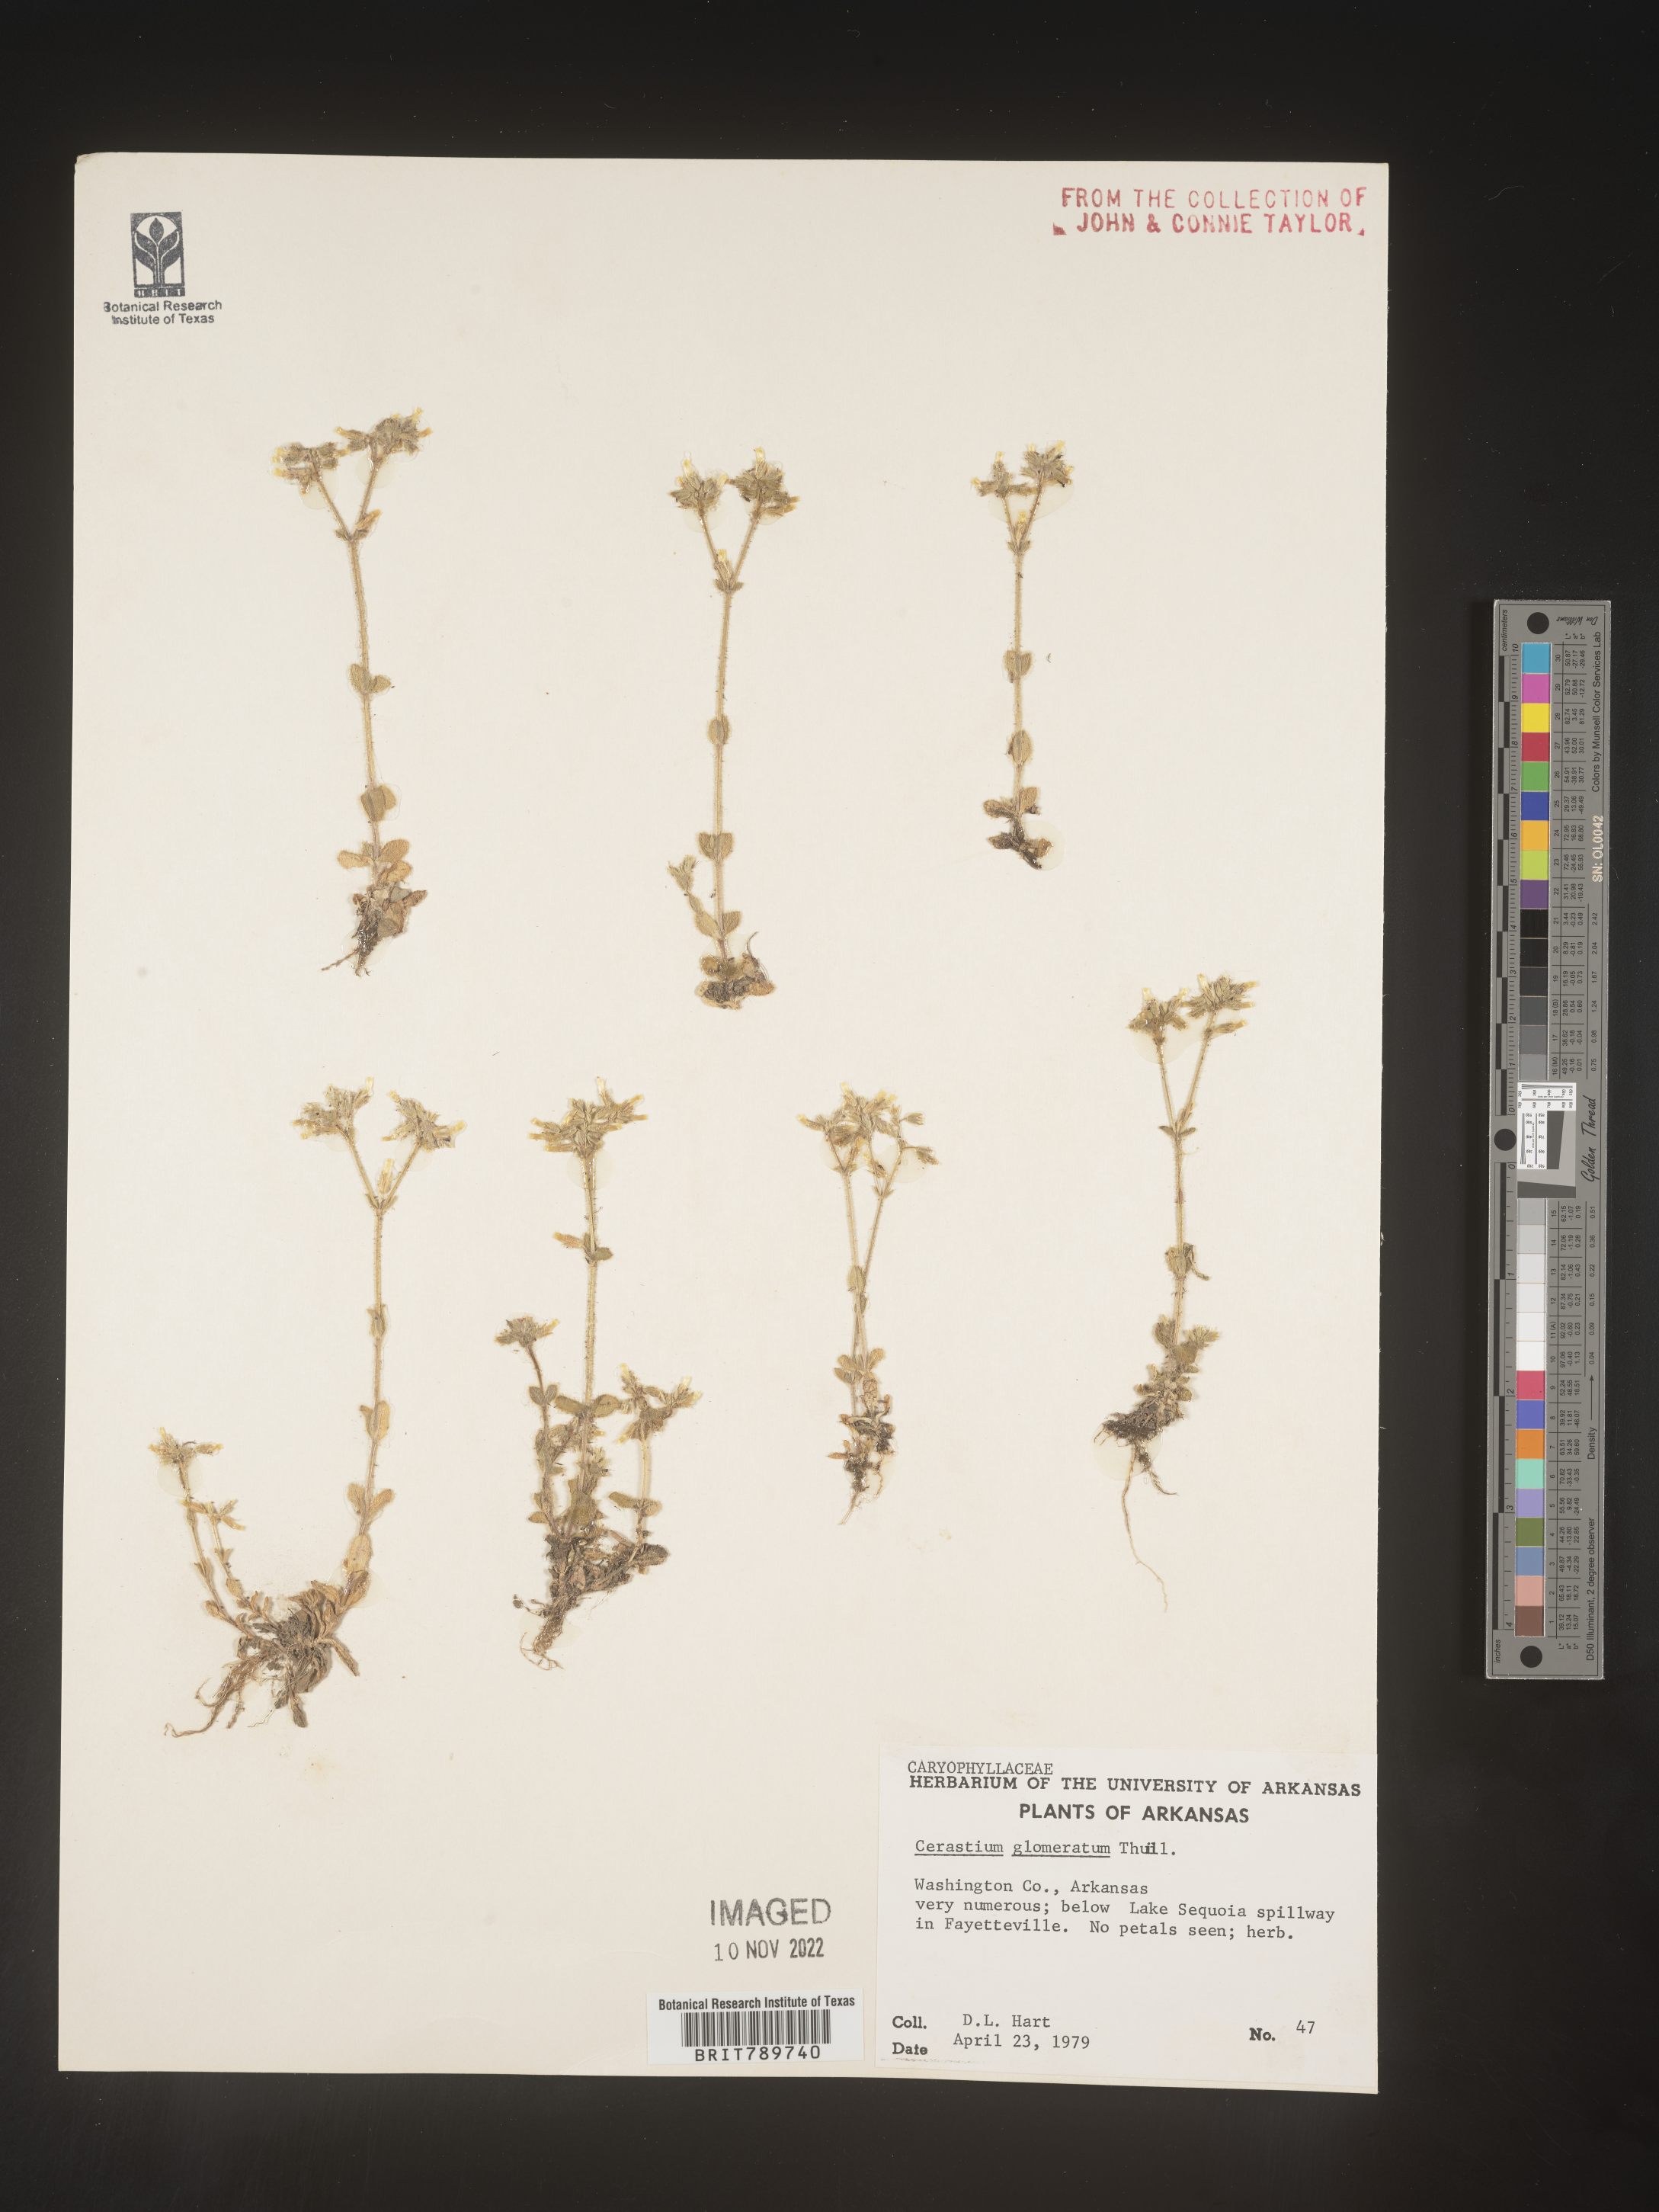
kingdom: Plantae
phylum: Tracheophyta
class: Magnoliopsida
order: Caryophyllales
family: Caryophyllaceae
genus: Cerastium
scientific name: Cerastium glomeratum
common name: Sticky chickweed
